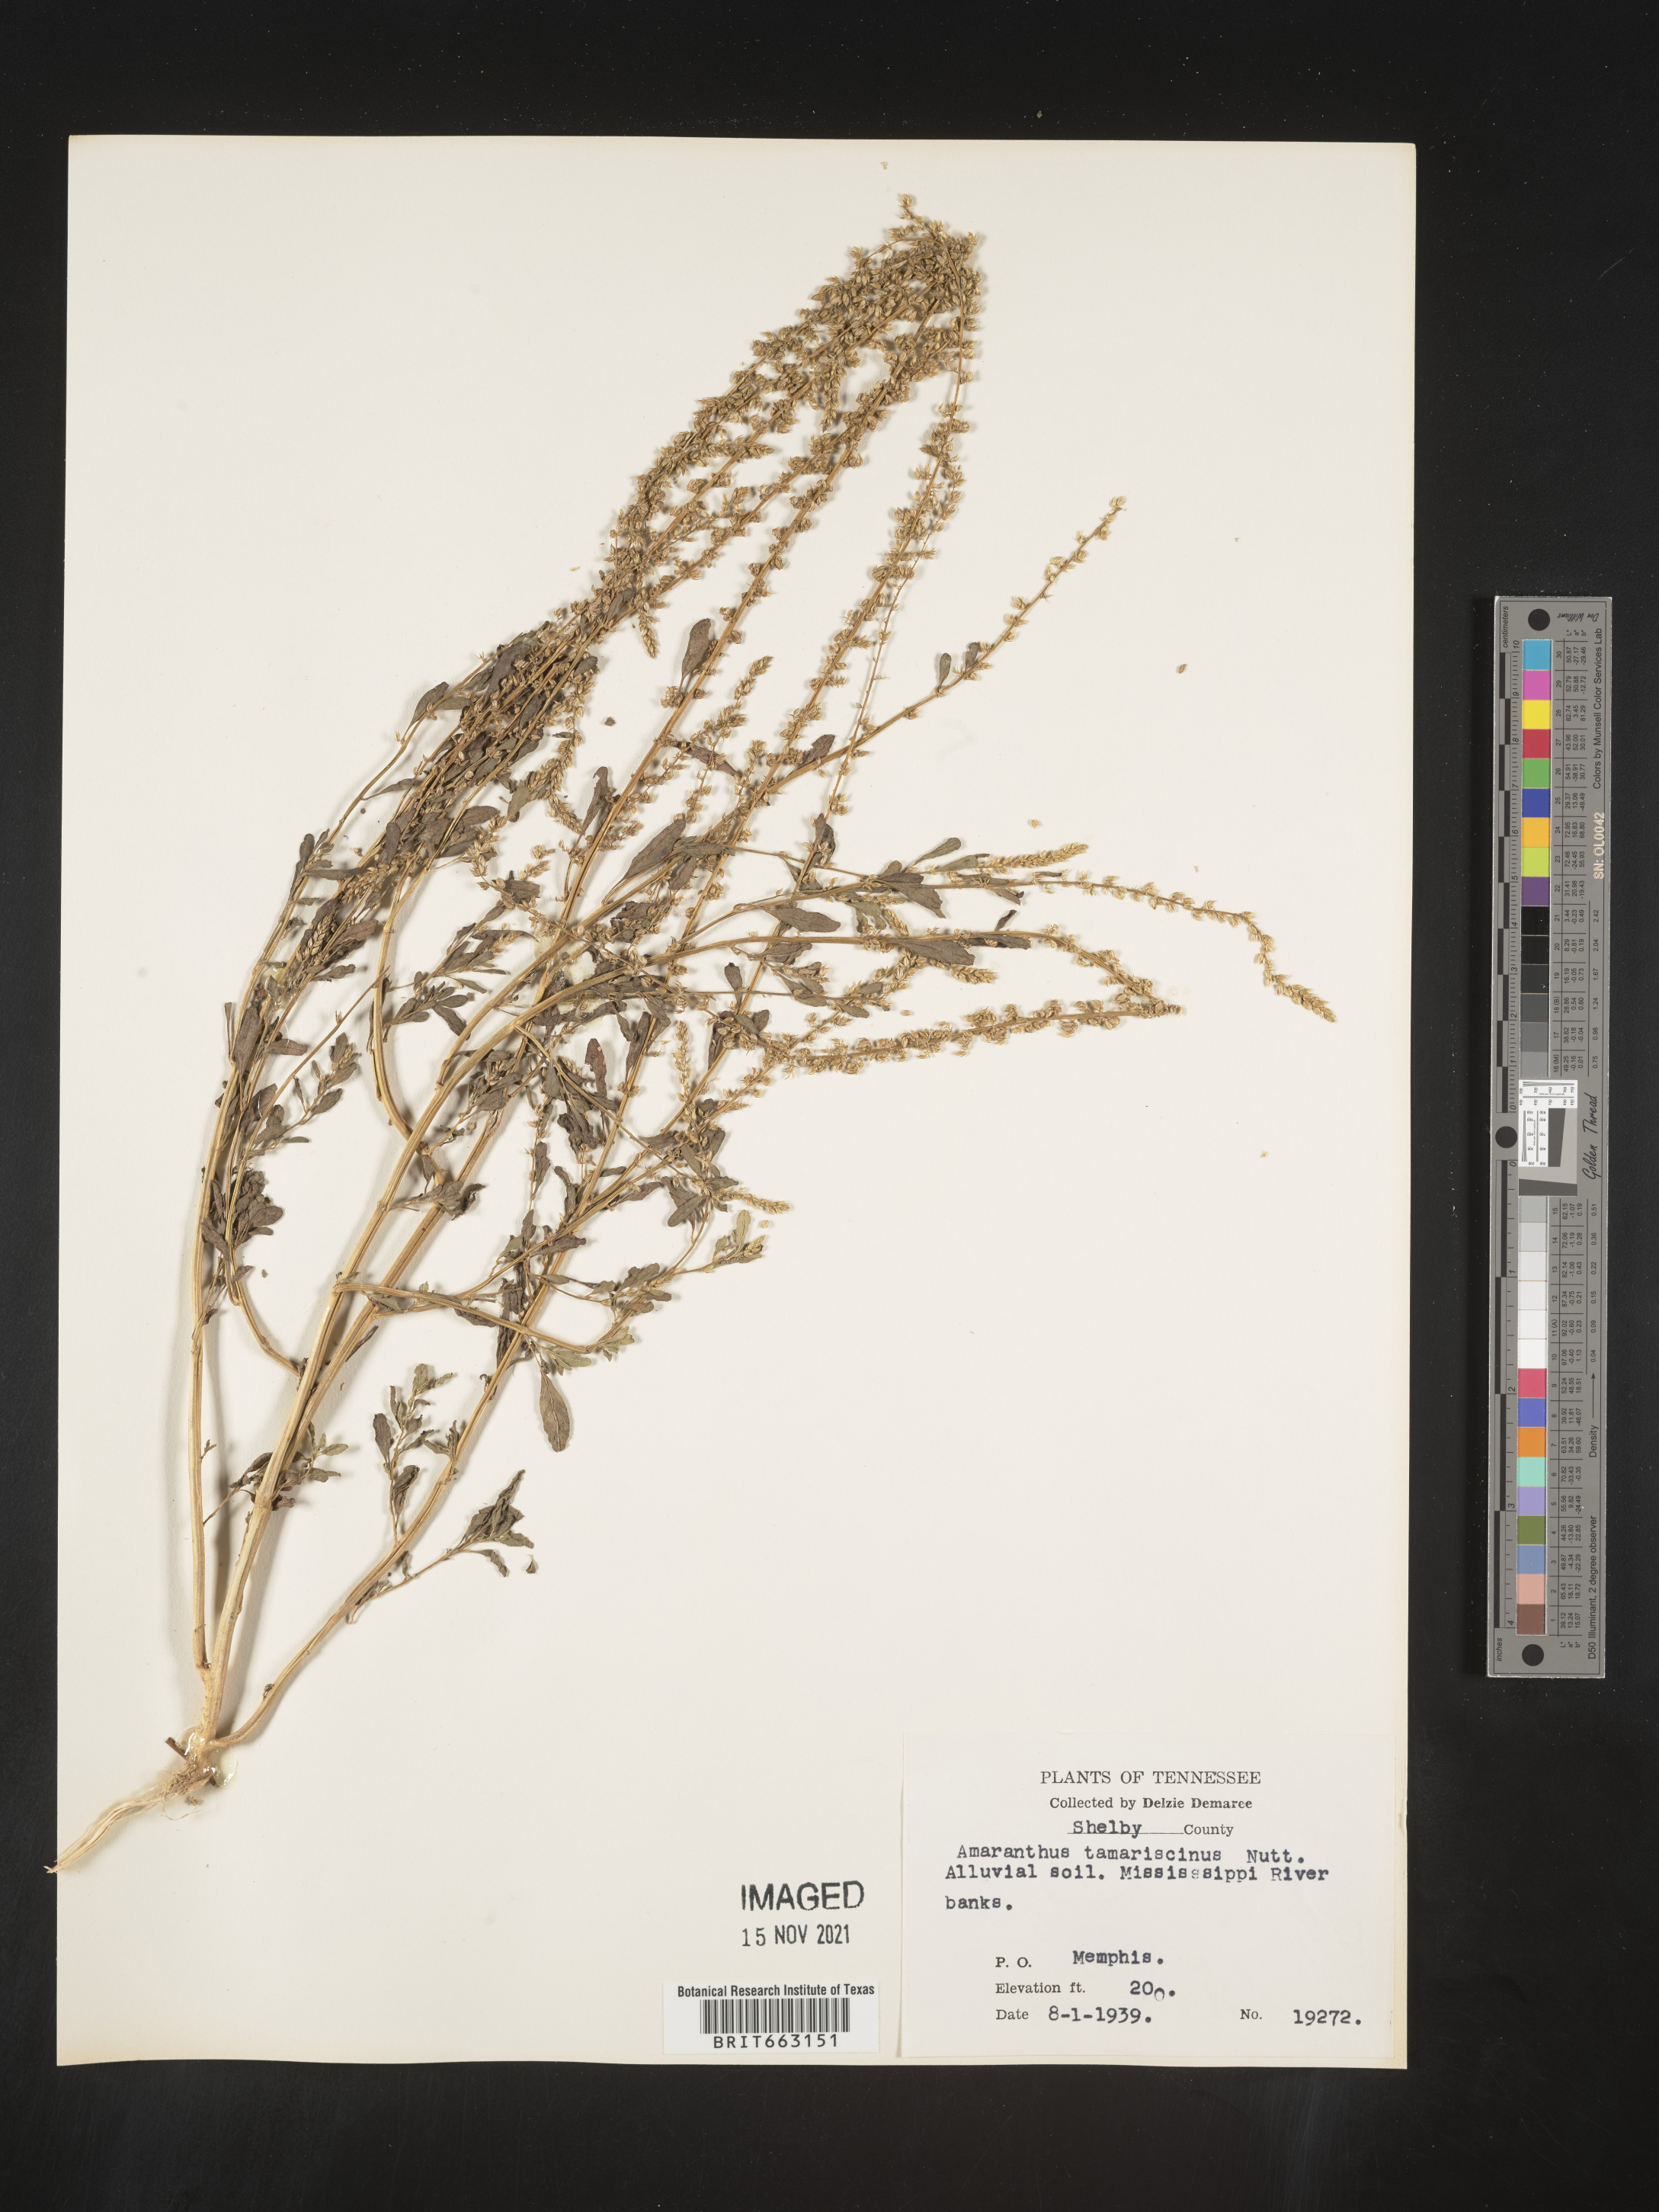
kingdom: Plantae
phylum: Tracheophyta
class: Magnoliopsida
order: Caryophyllales
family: Amaranthaceae
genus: Amaranthus
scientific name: Amaranthus tamariscinus
